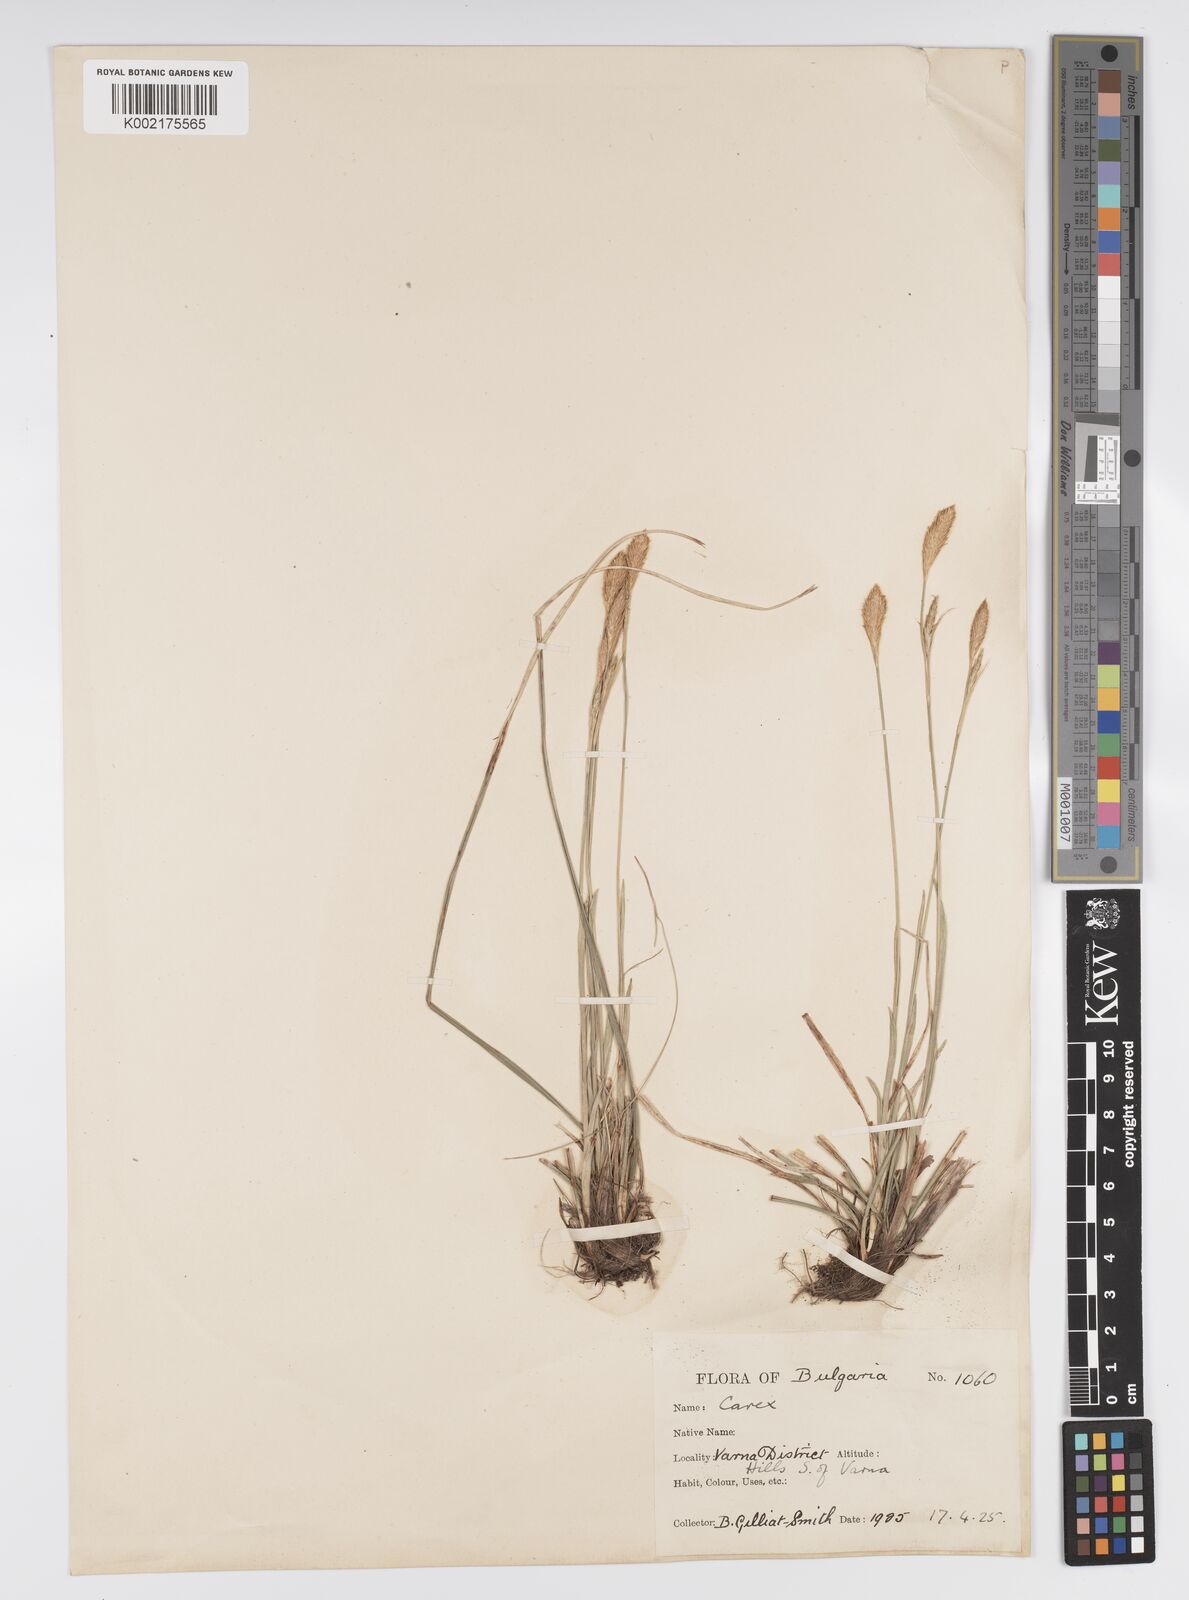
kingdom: Plantae
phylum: Tracheophyta
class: Liliopsida
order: Poales
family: Cyperaceae
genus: Carex
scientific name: Carex michelii
